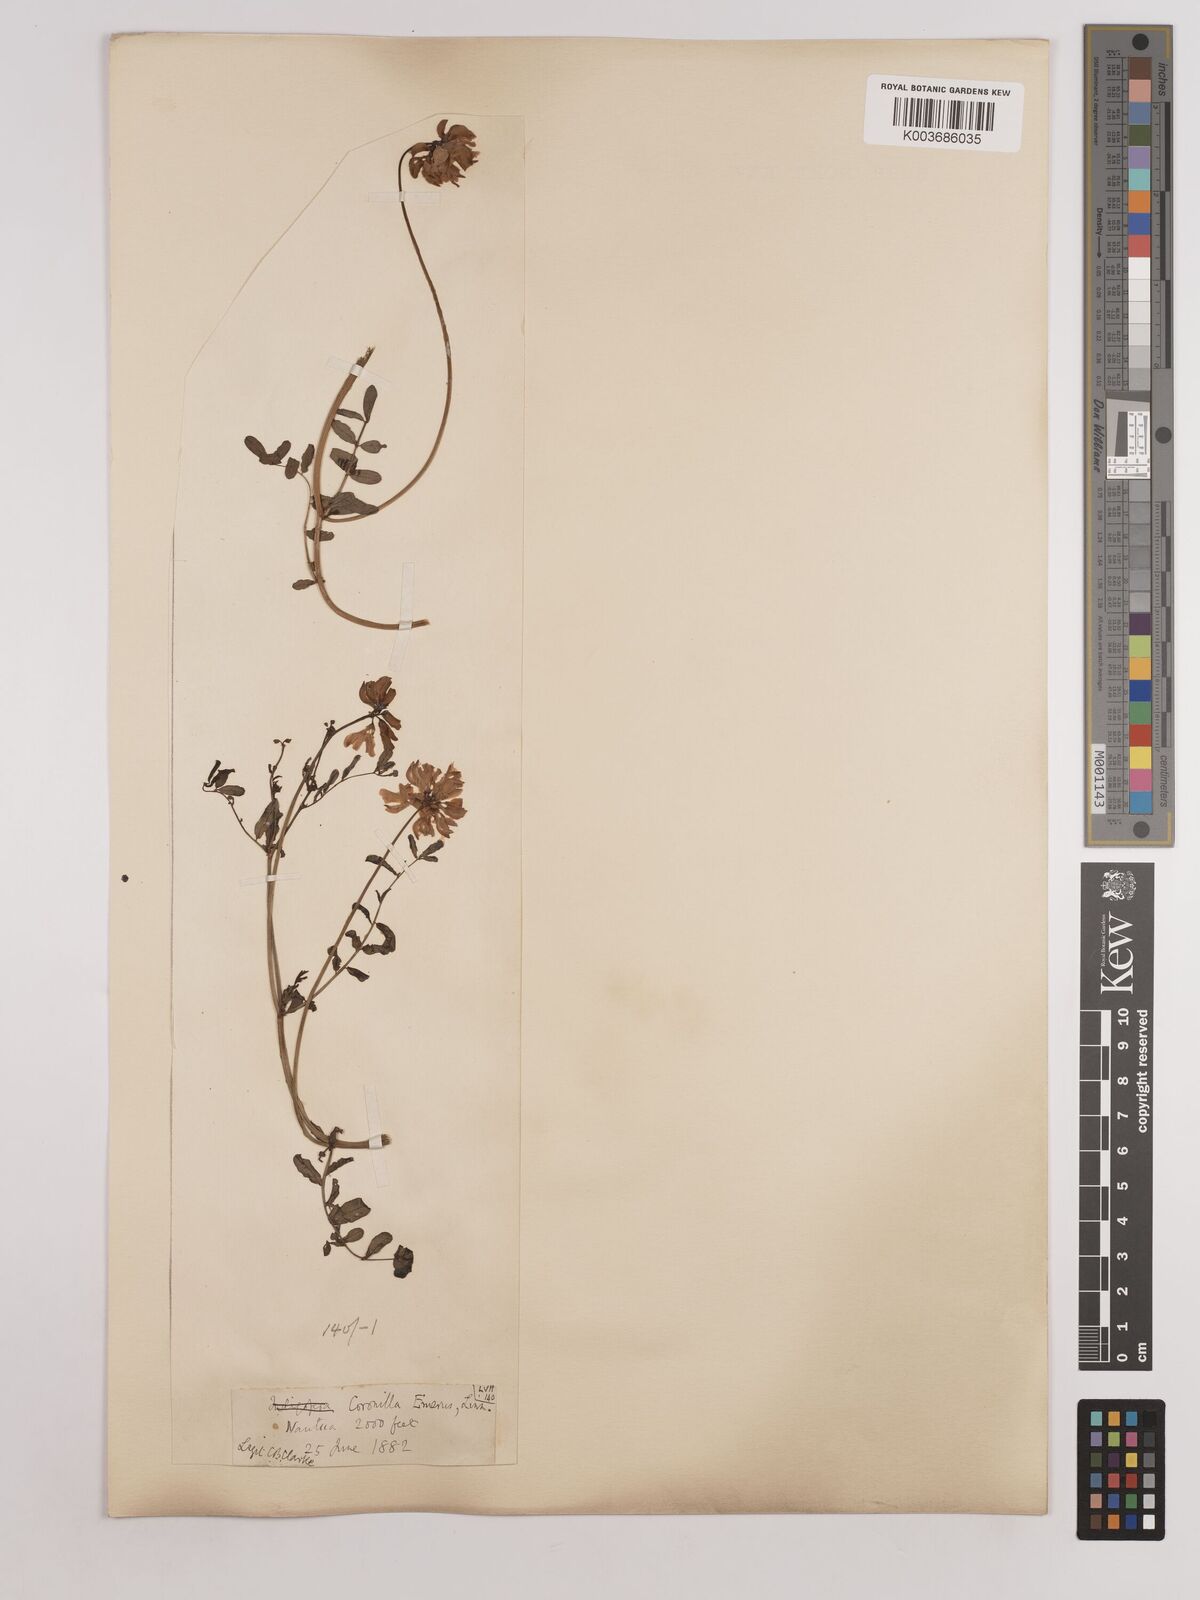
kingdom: Plantae
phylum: Tracheophyta
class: Magnoliopsida
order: Fabales
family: Fabaceae
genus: Coronilla
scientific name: Coronilla varia
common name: Crownvetch
